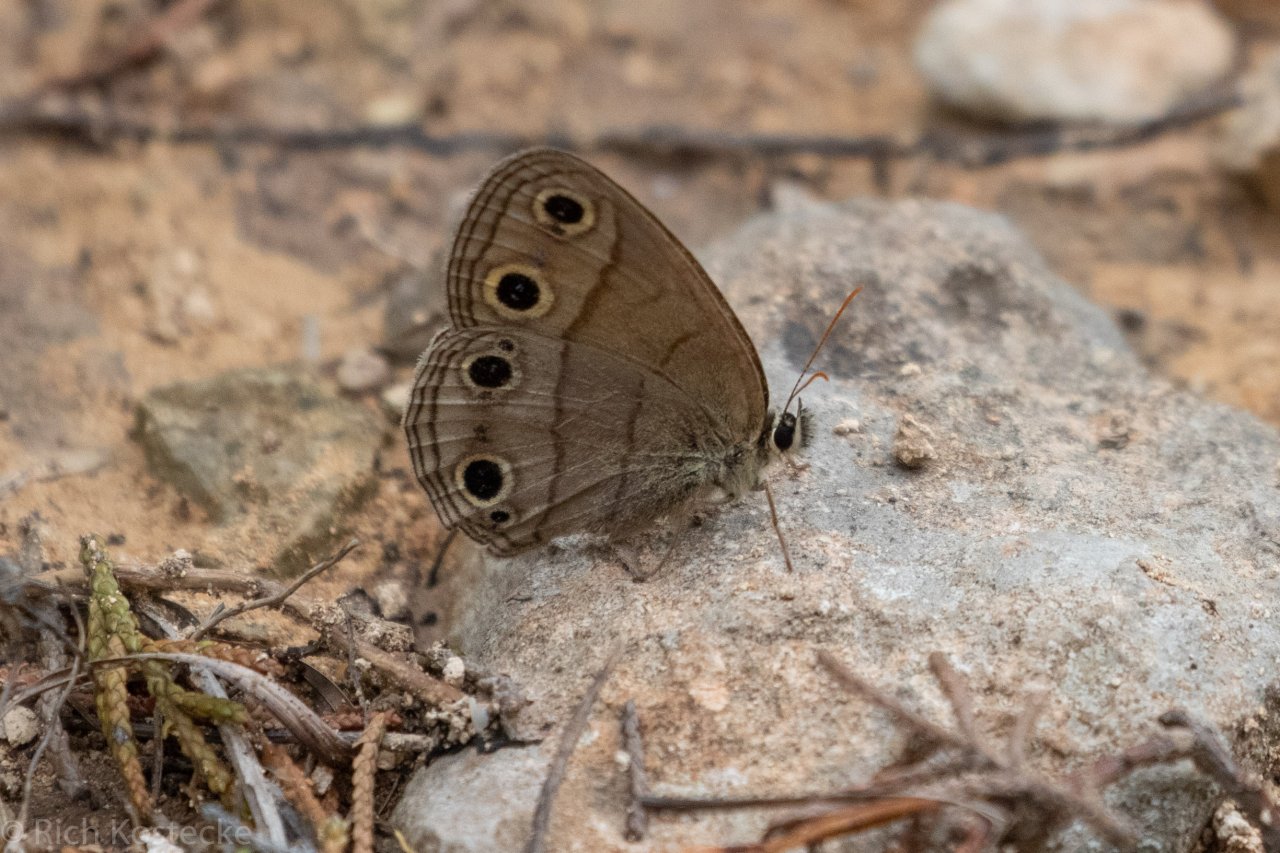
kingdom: Animalia
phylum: Arthropoda
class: Insecta
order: Lepidoptera
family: Nymphalidae
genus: Euptychia
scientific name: Euptychia cymela
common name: Little Wood Satyr
